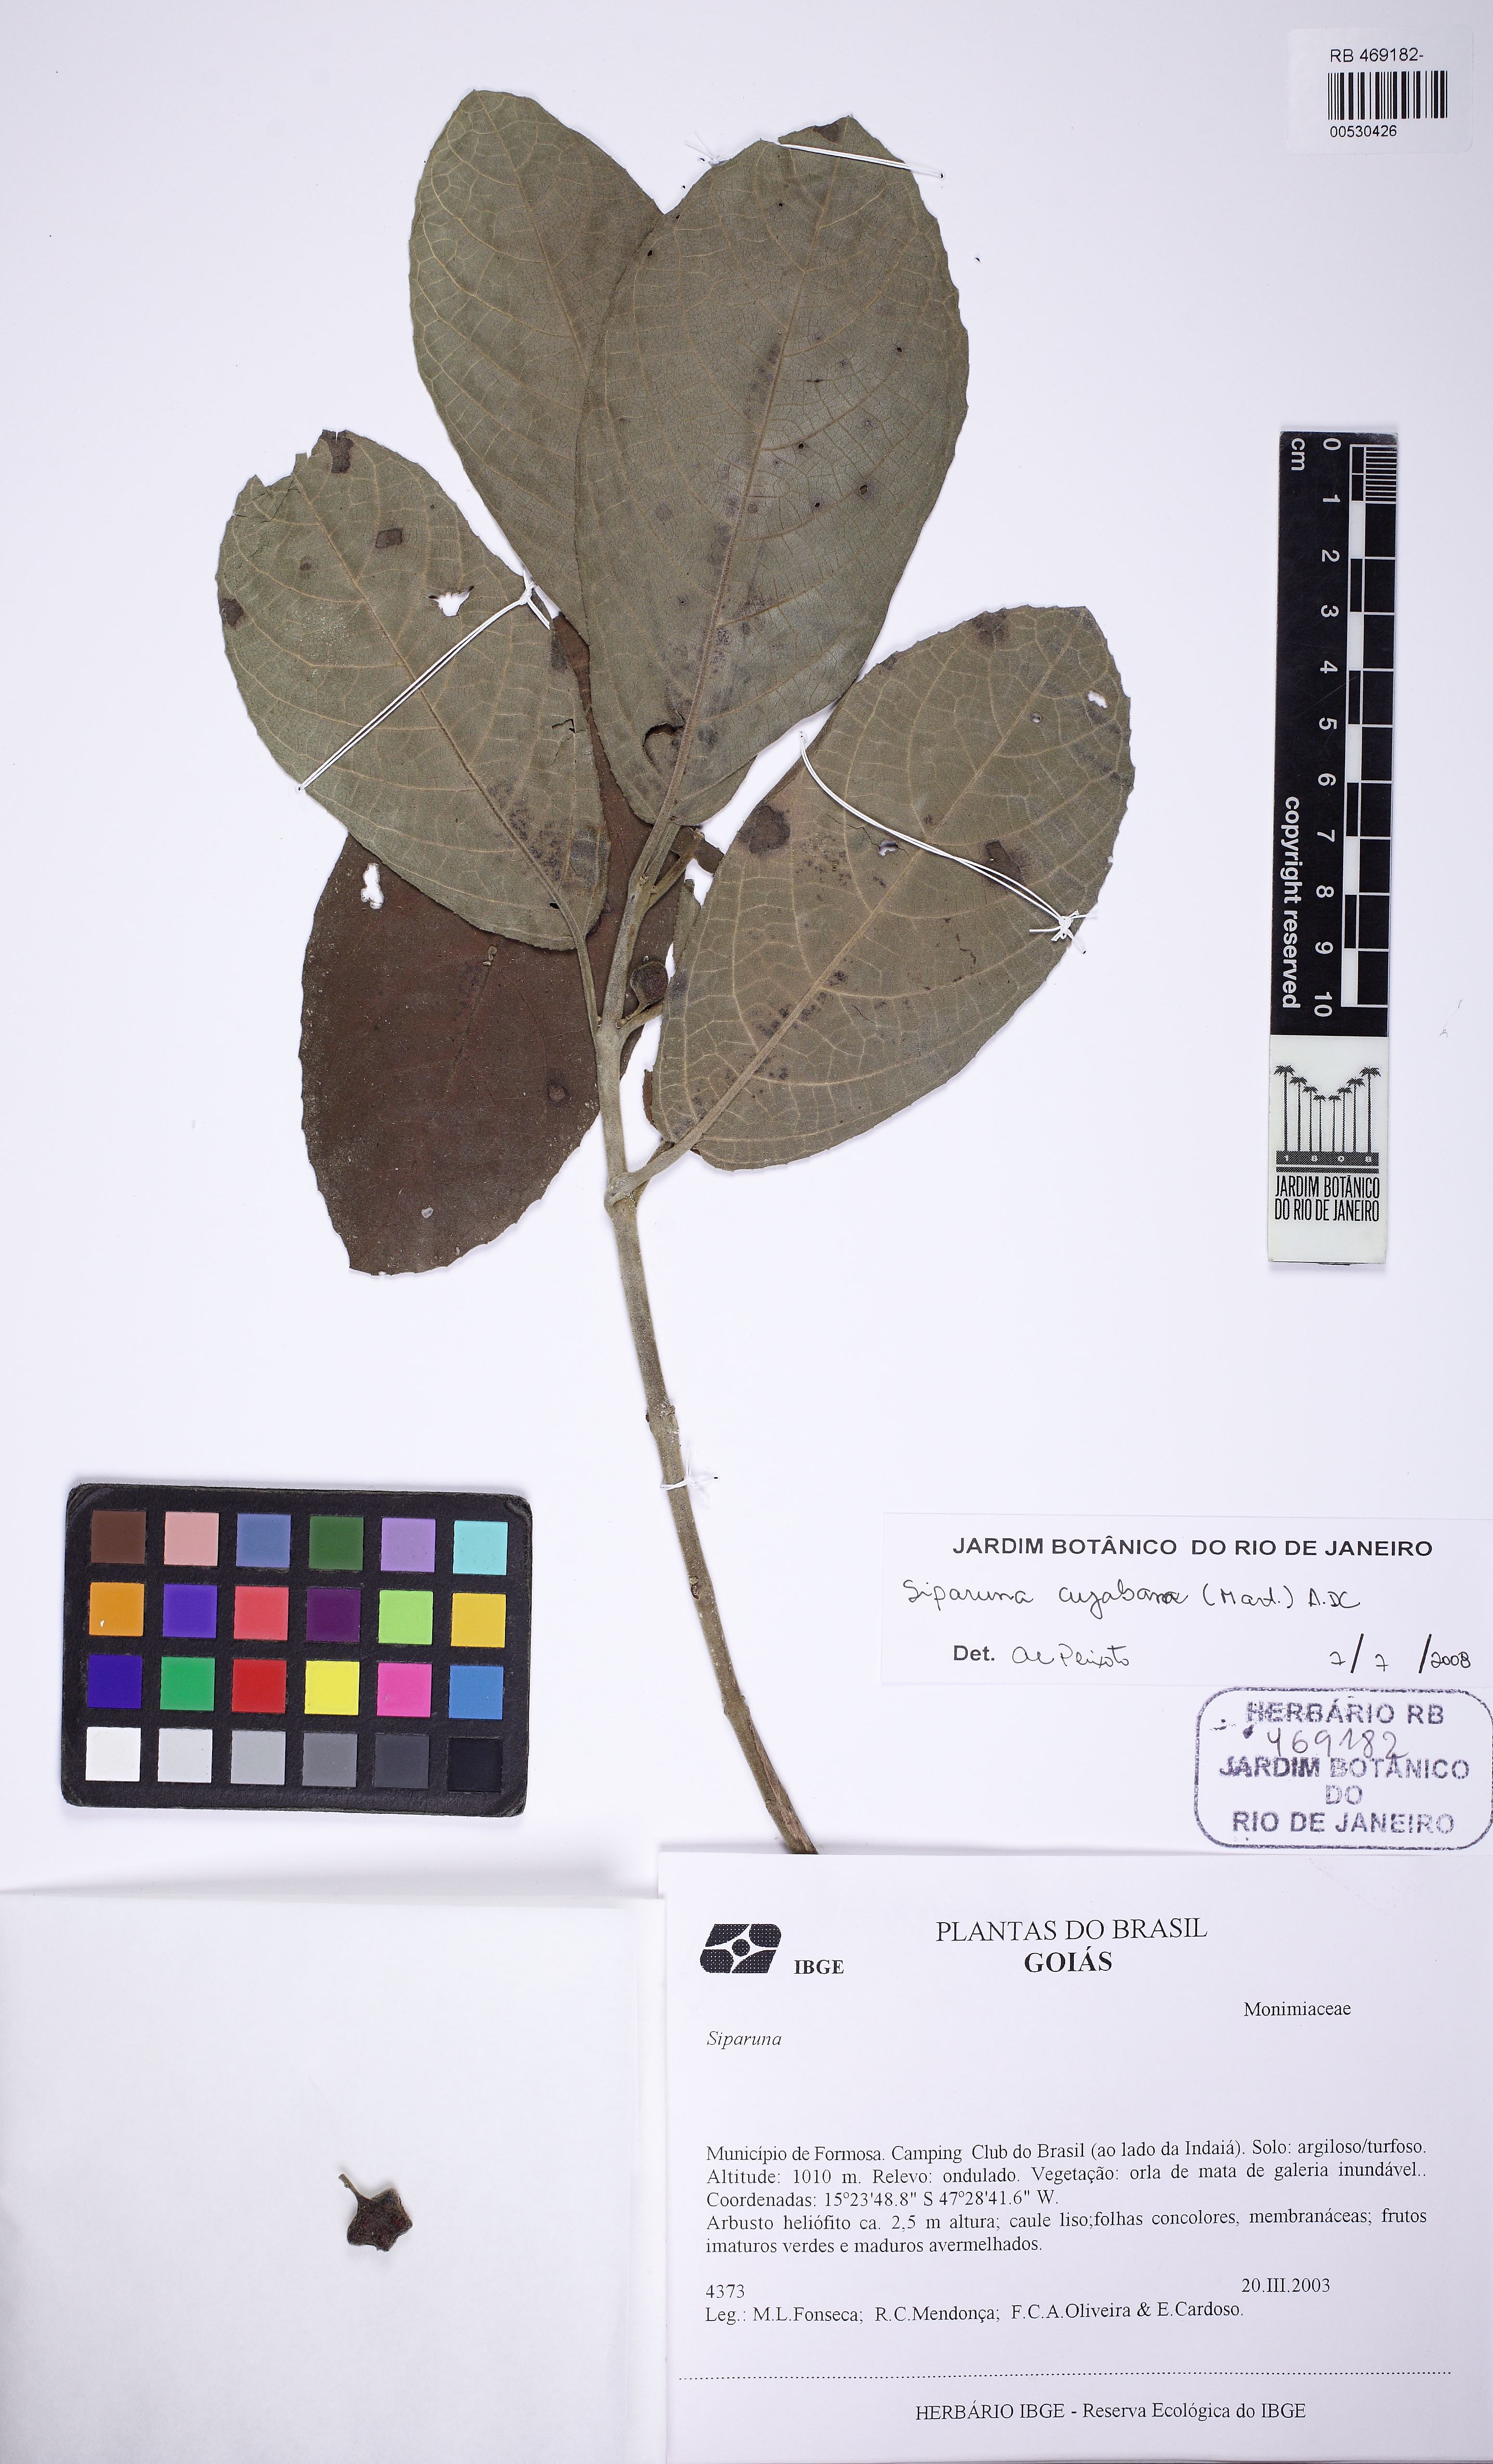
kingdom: Plantae
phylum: Tracheophyta
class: Magnoliopsida
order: Laurales
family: Siparunaceae
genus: Siparuna
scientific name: Siparuna brasiliensis
